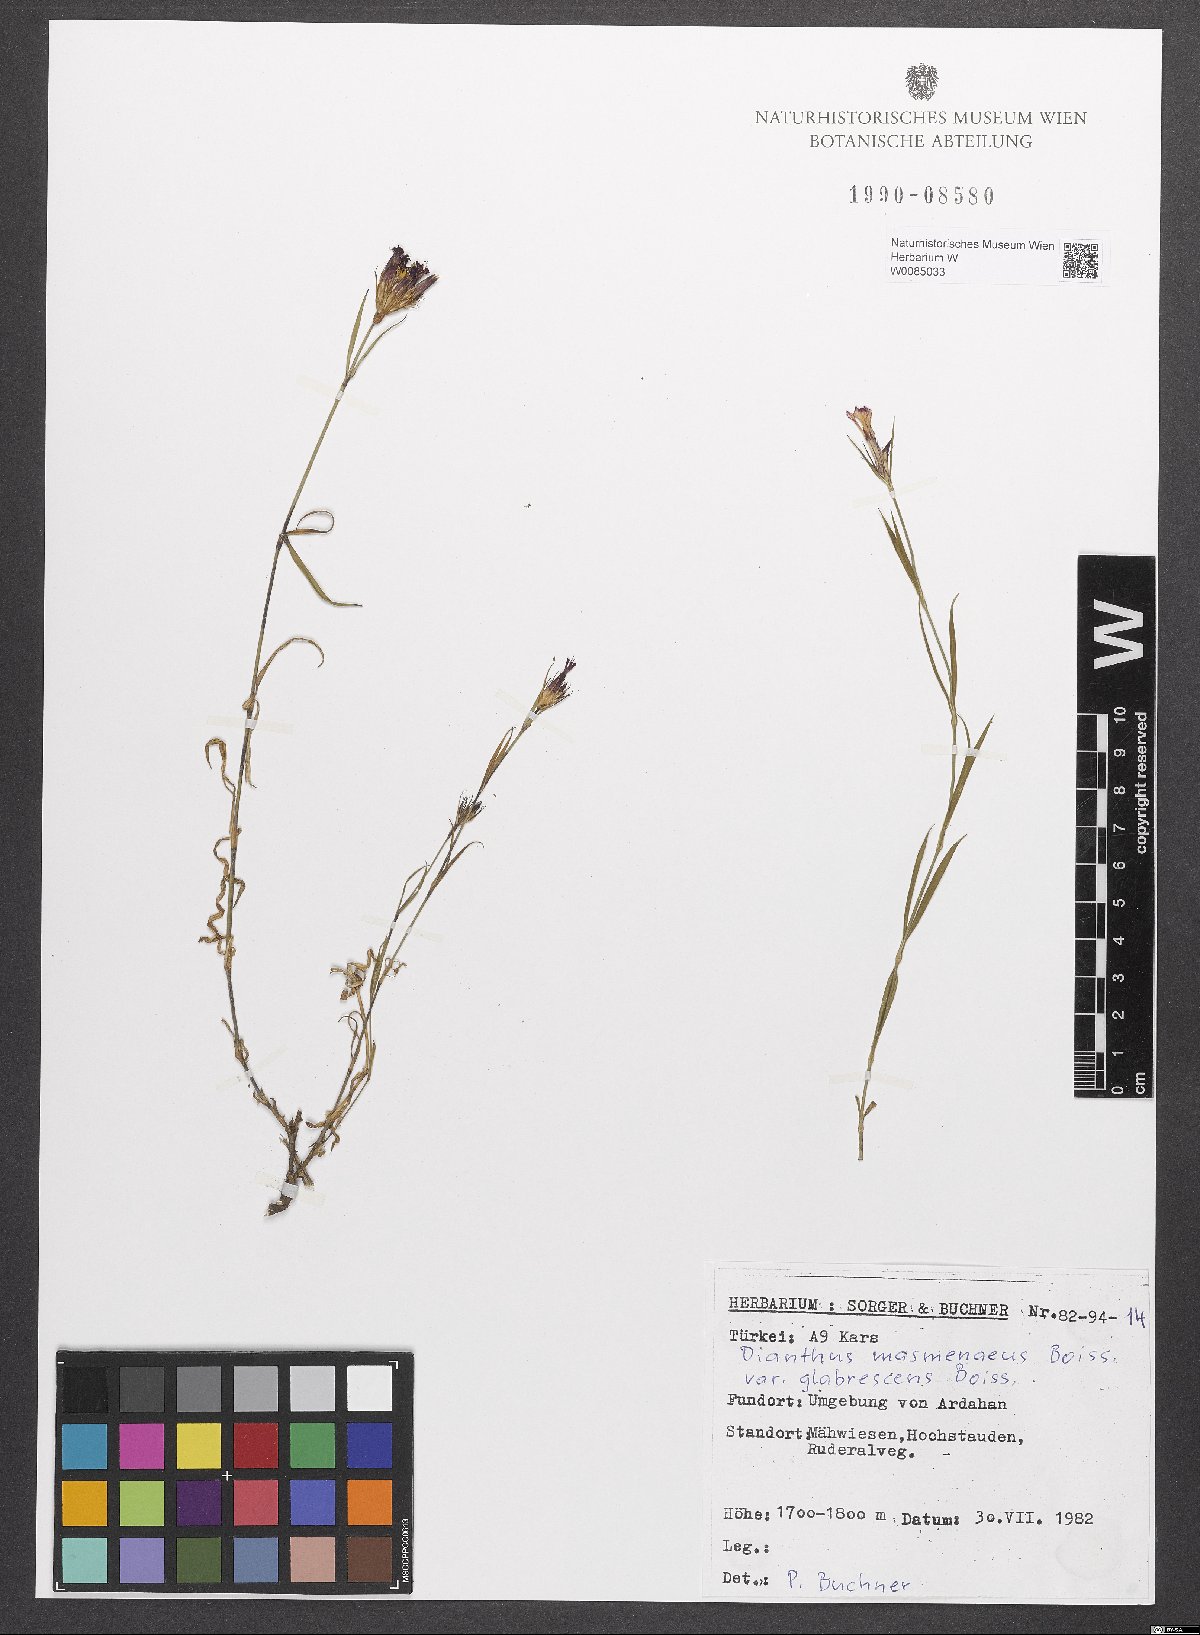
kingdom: Plantae
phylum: Tracheophyta
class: Magnoliopsida
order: Caryophyllales
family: Caryophyllaceae
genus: Dianthus
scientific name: Dianthus masmenaeus
